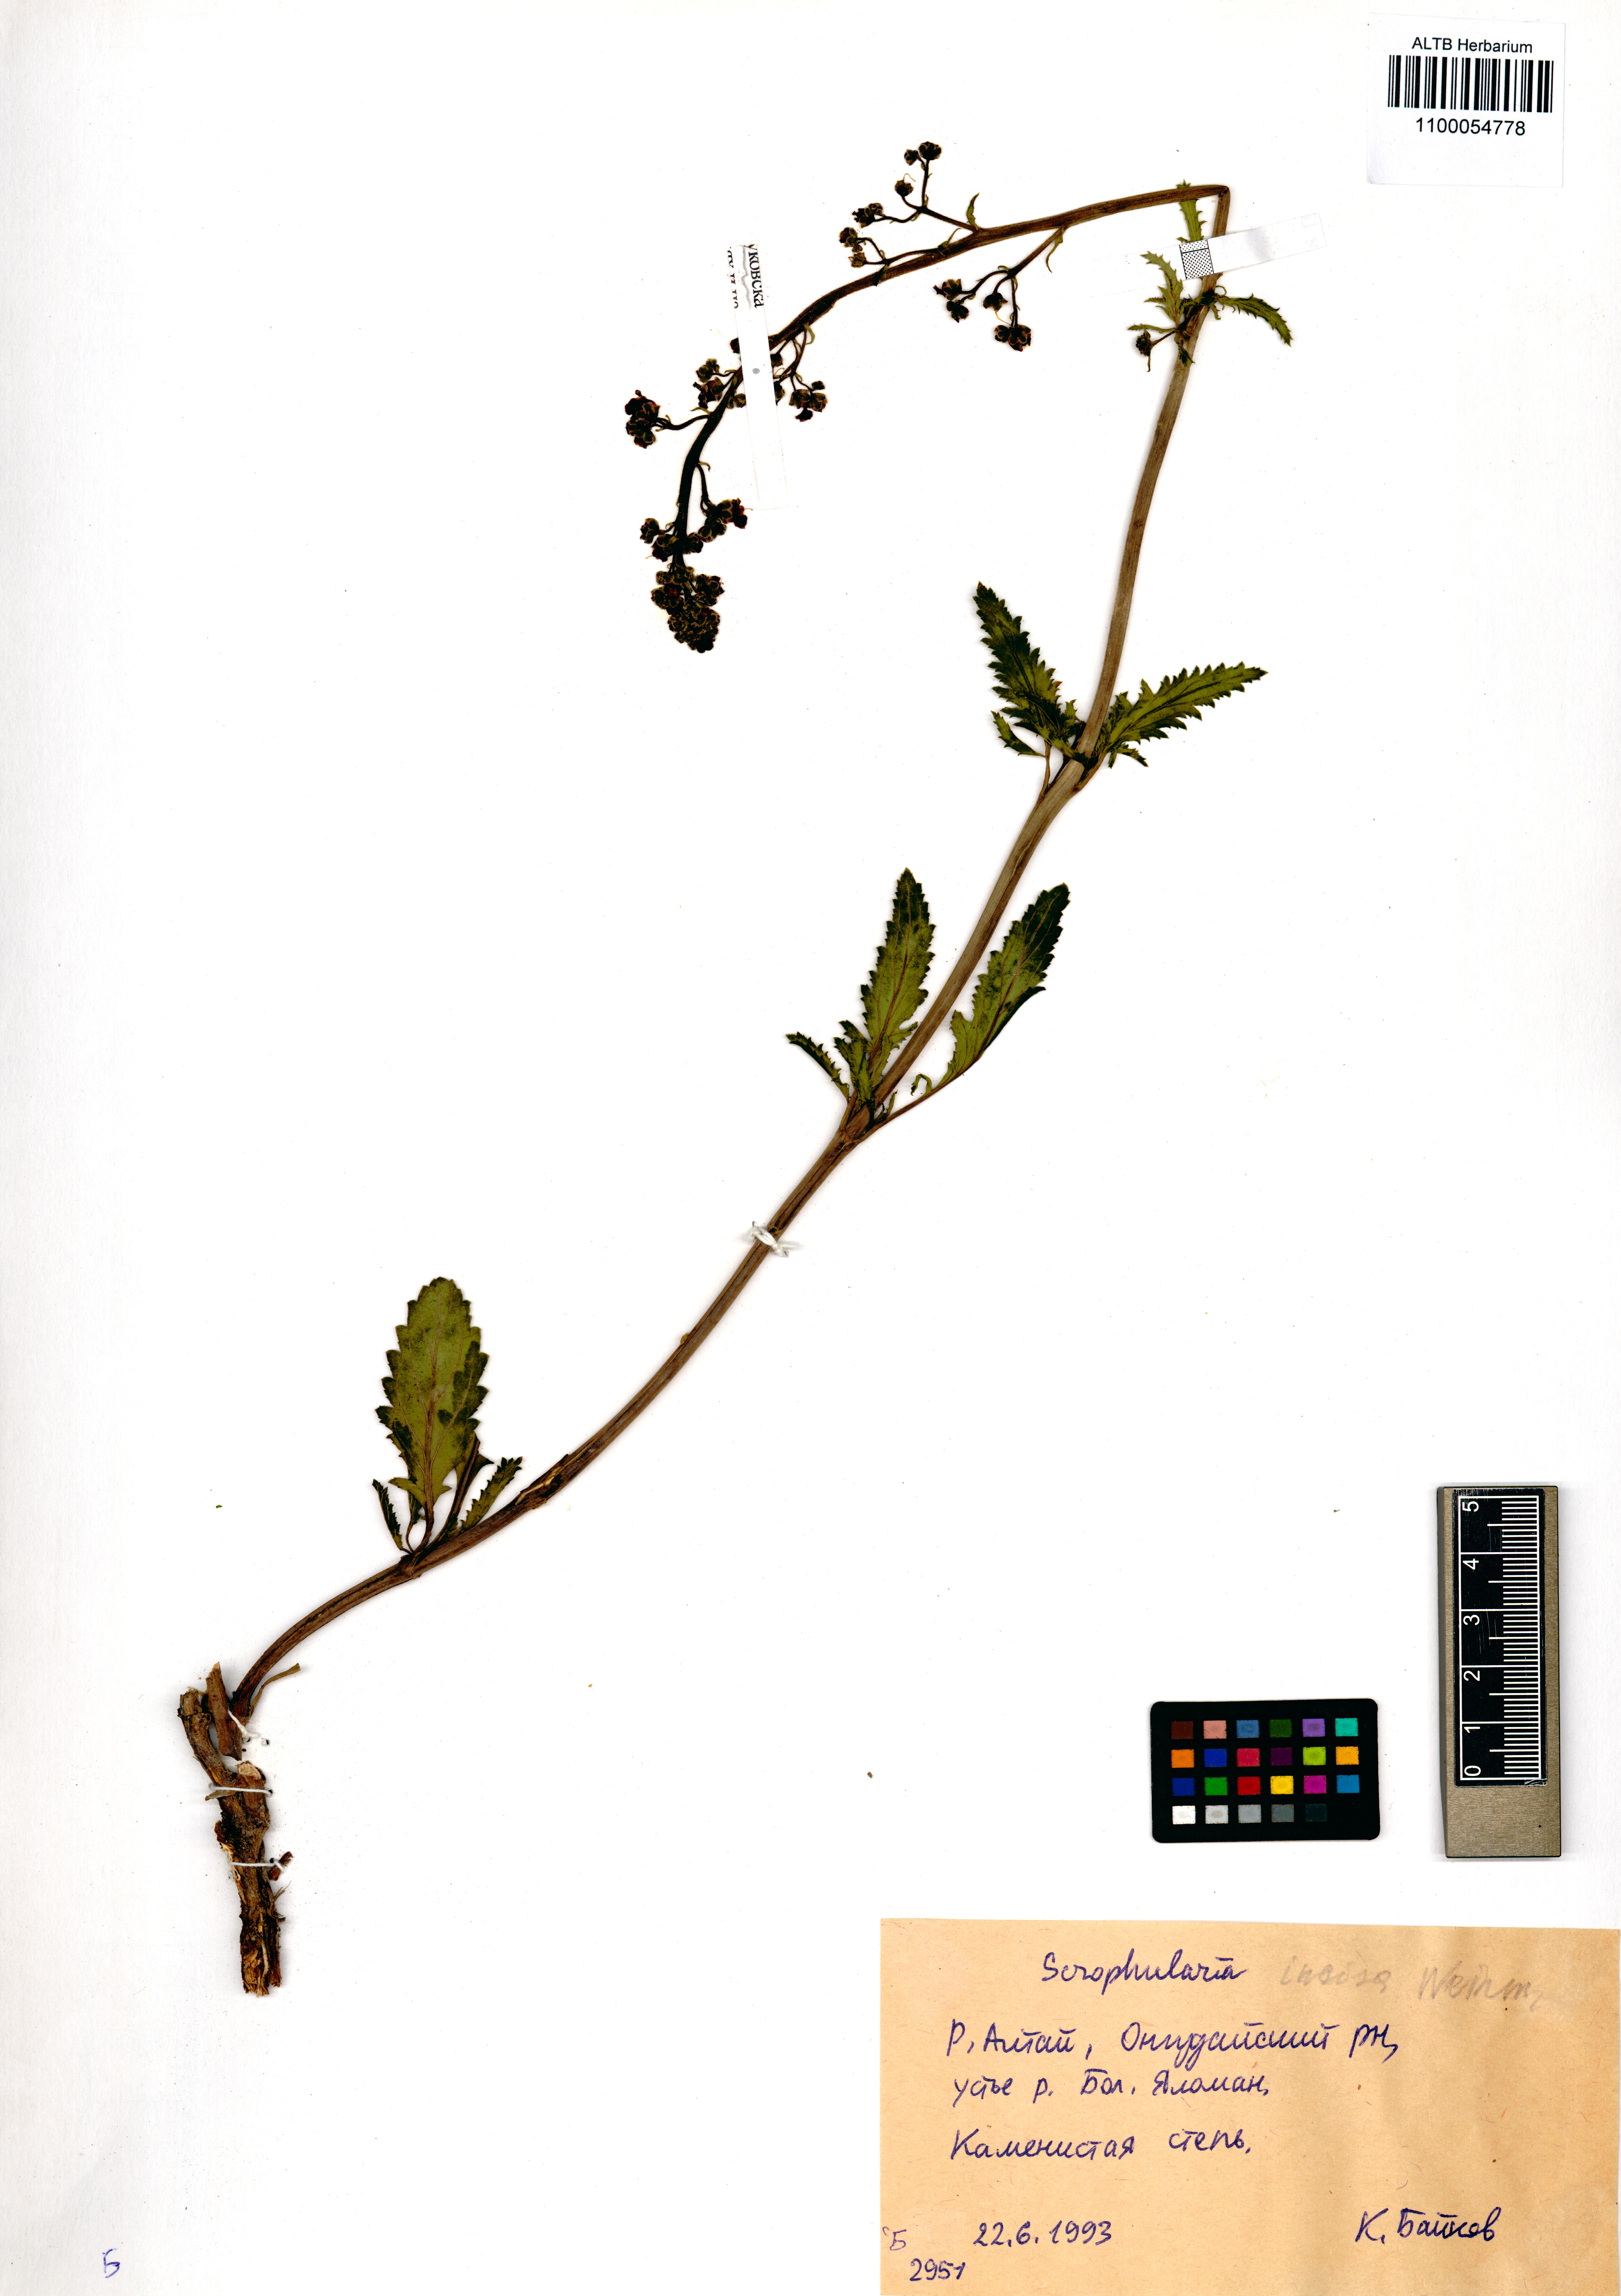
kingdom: Plantae
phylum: Tracheophyta
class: Magnoliopsida
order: Lamiales
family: Scrophulariaceae
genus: Scrophularia
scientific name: Scrophularia incisa
